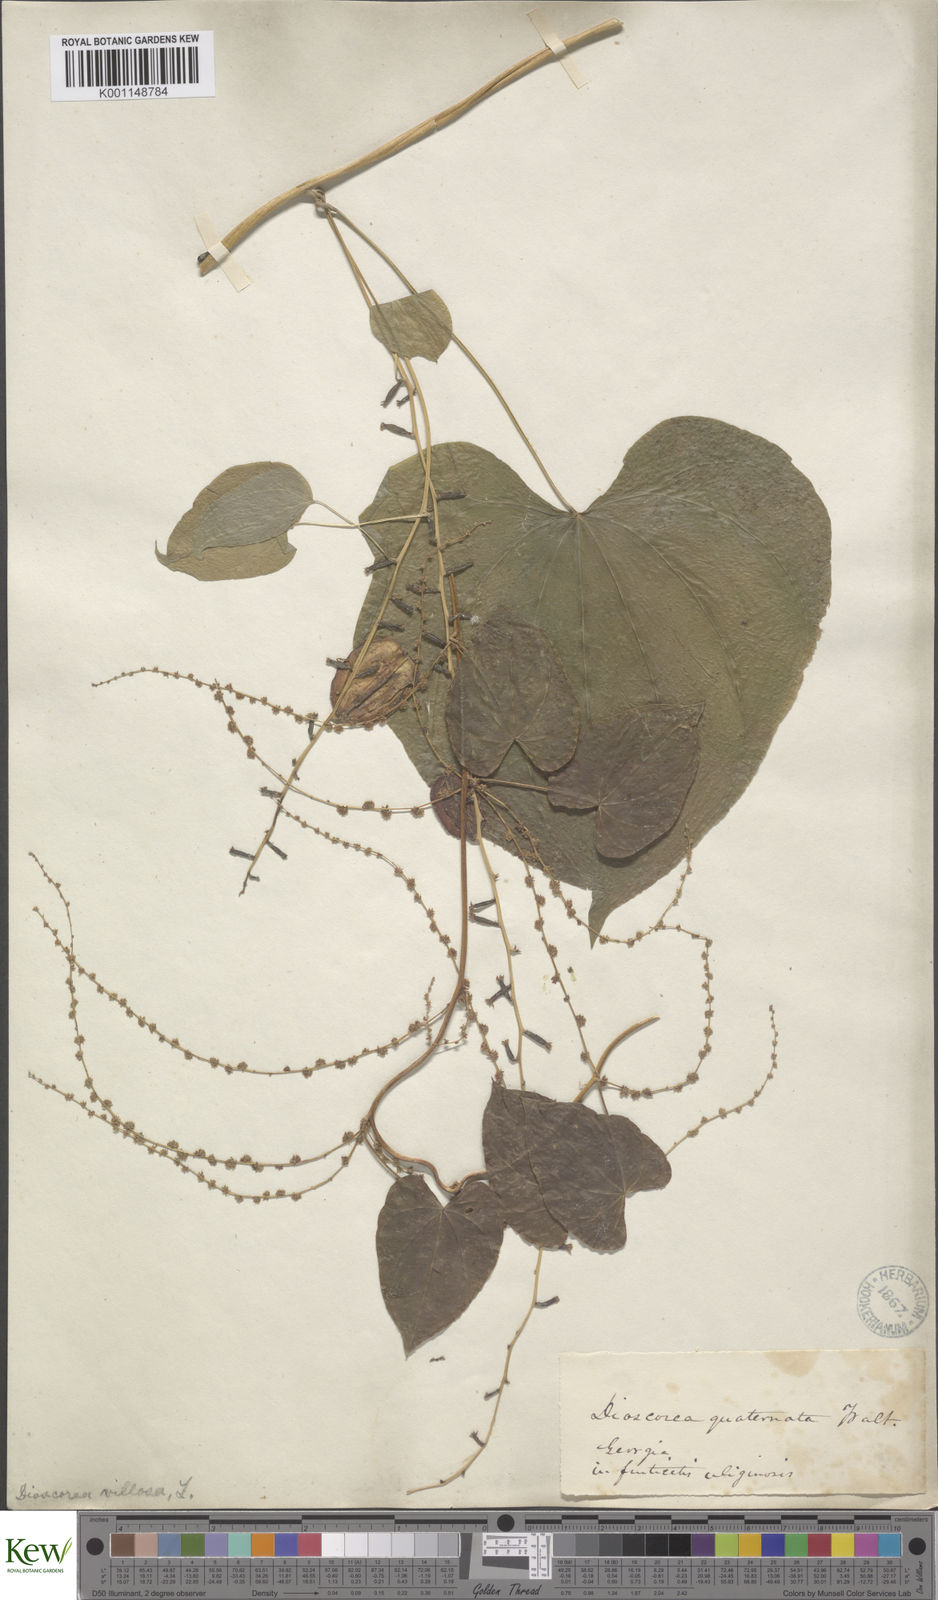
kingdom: Plantae
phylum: Tracheophyta
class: Liliopsida
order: Dioscoreales
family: Dioscoreaceae
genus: Dioscorea
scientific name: Dioscorea villosa
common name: Wild yam
